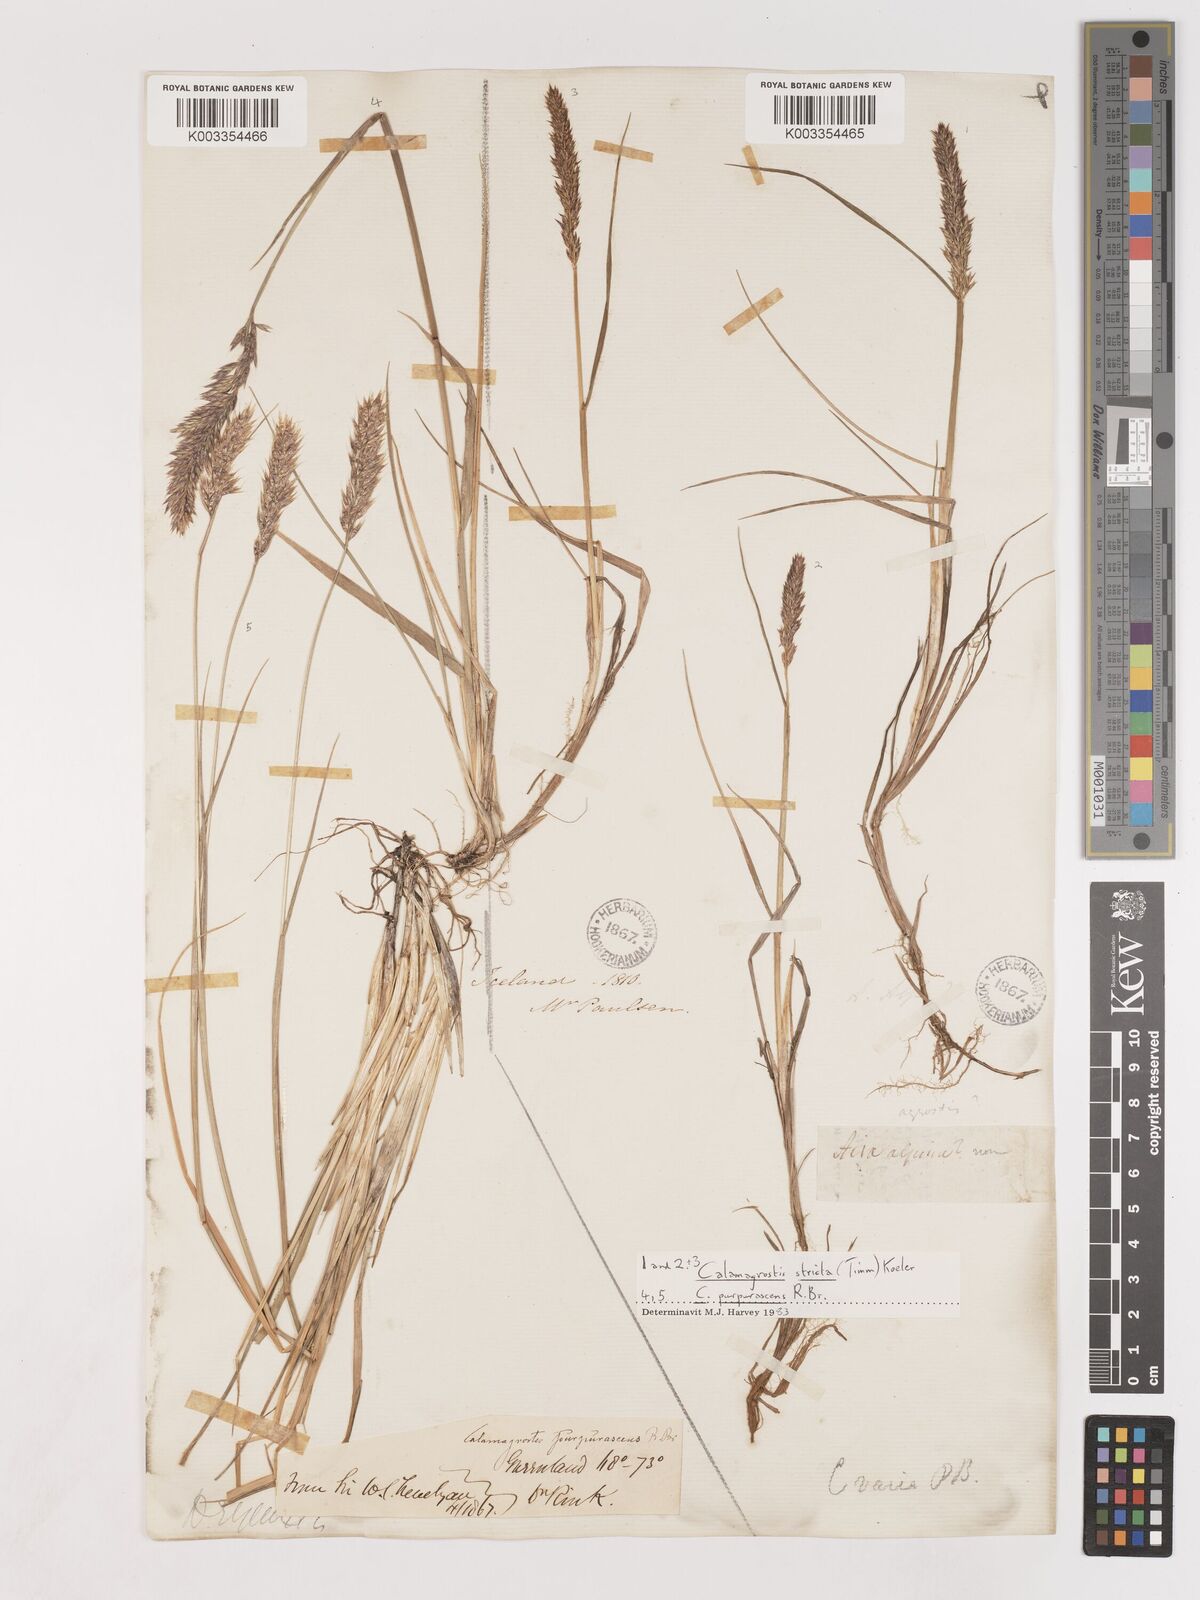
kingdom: Plantae
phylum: Tracheophyta
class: Liliopsida
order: Poales
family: Poaceae
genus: Calamagrostis
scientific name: Calamagrostis purpurascens
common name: Purple reedgrass
